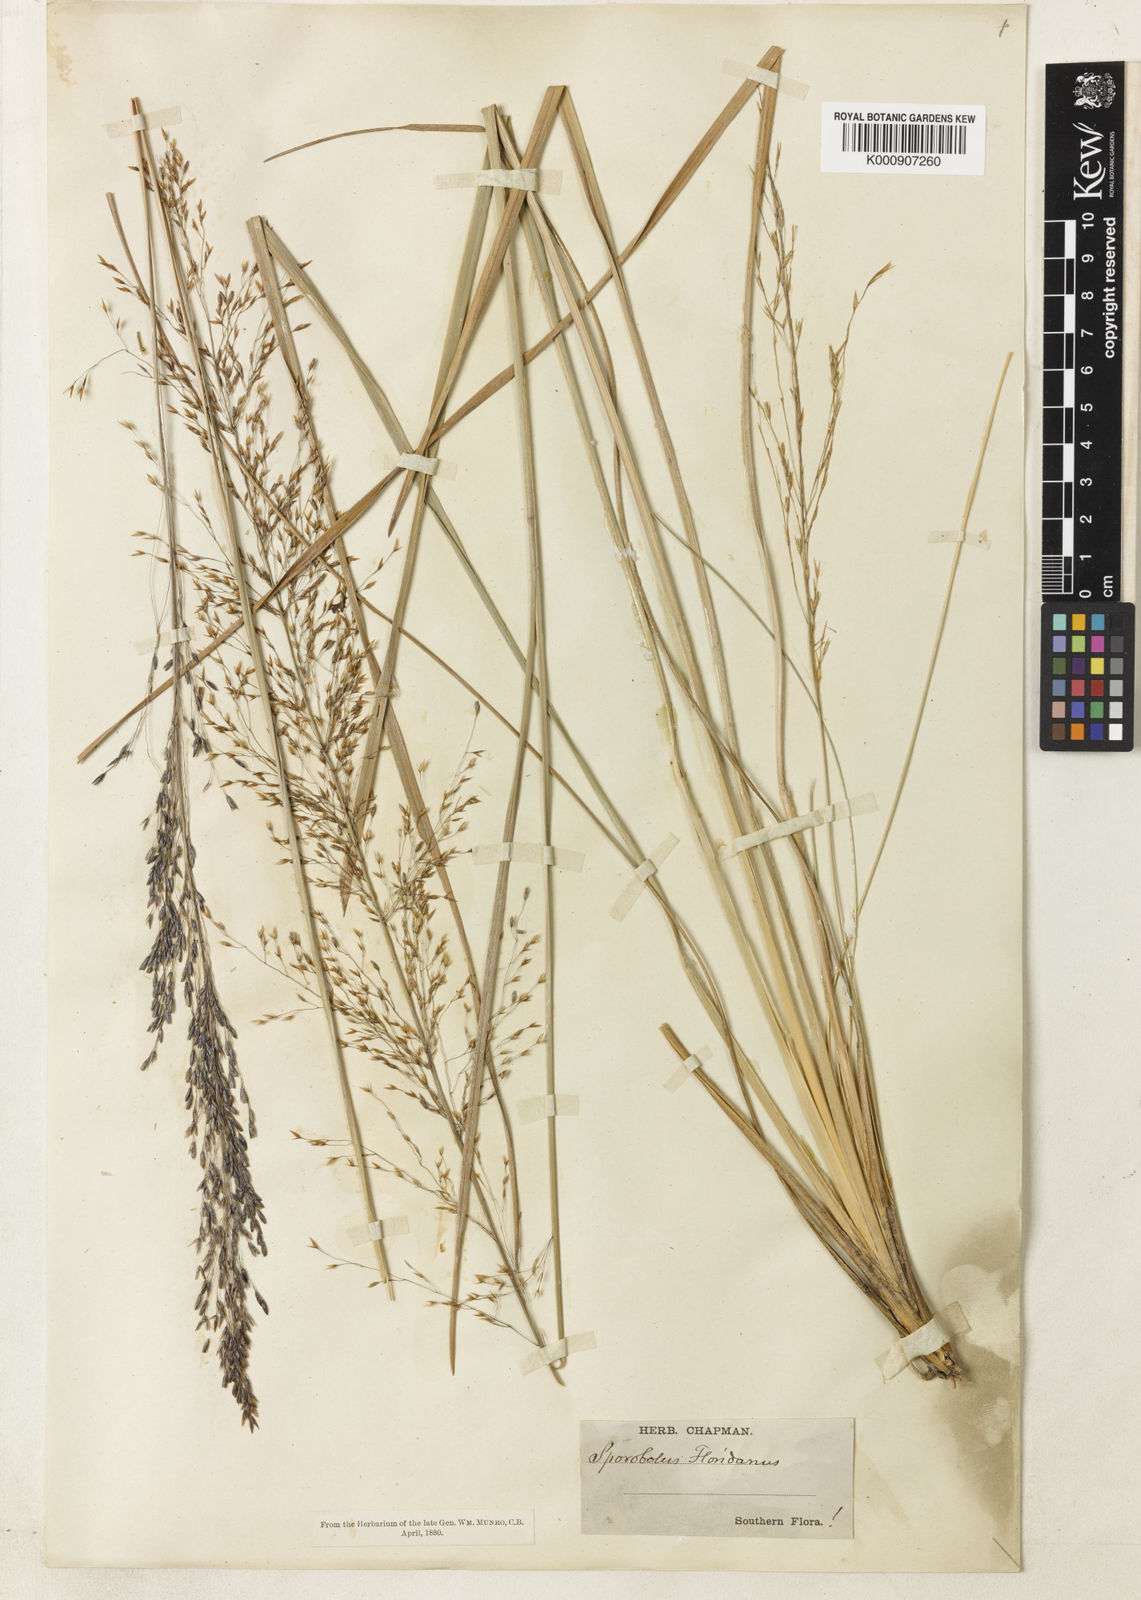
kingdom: Plantae
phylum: Tracheophyta
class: Liliopsida
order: Poales
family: Poaceae
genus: Sporobolus
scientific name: Sporobolus floridanus
